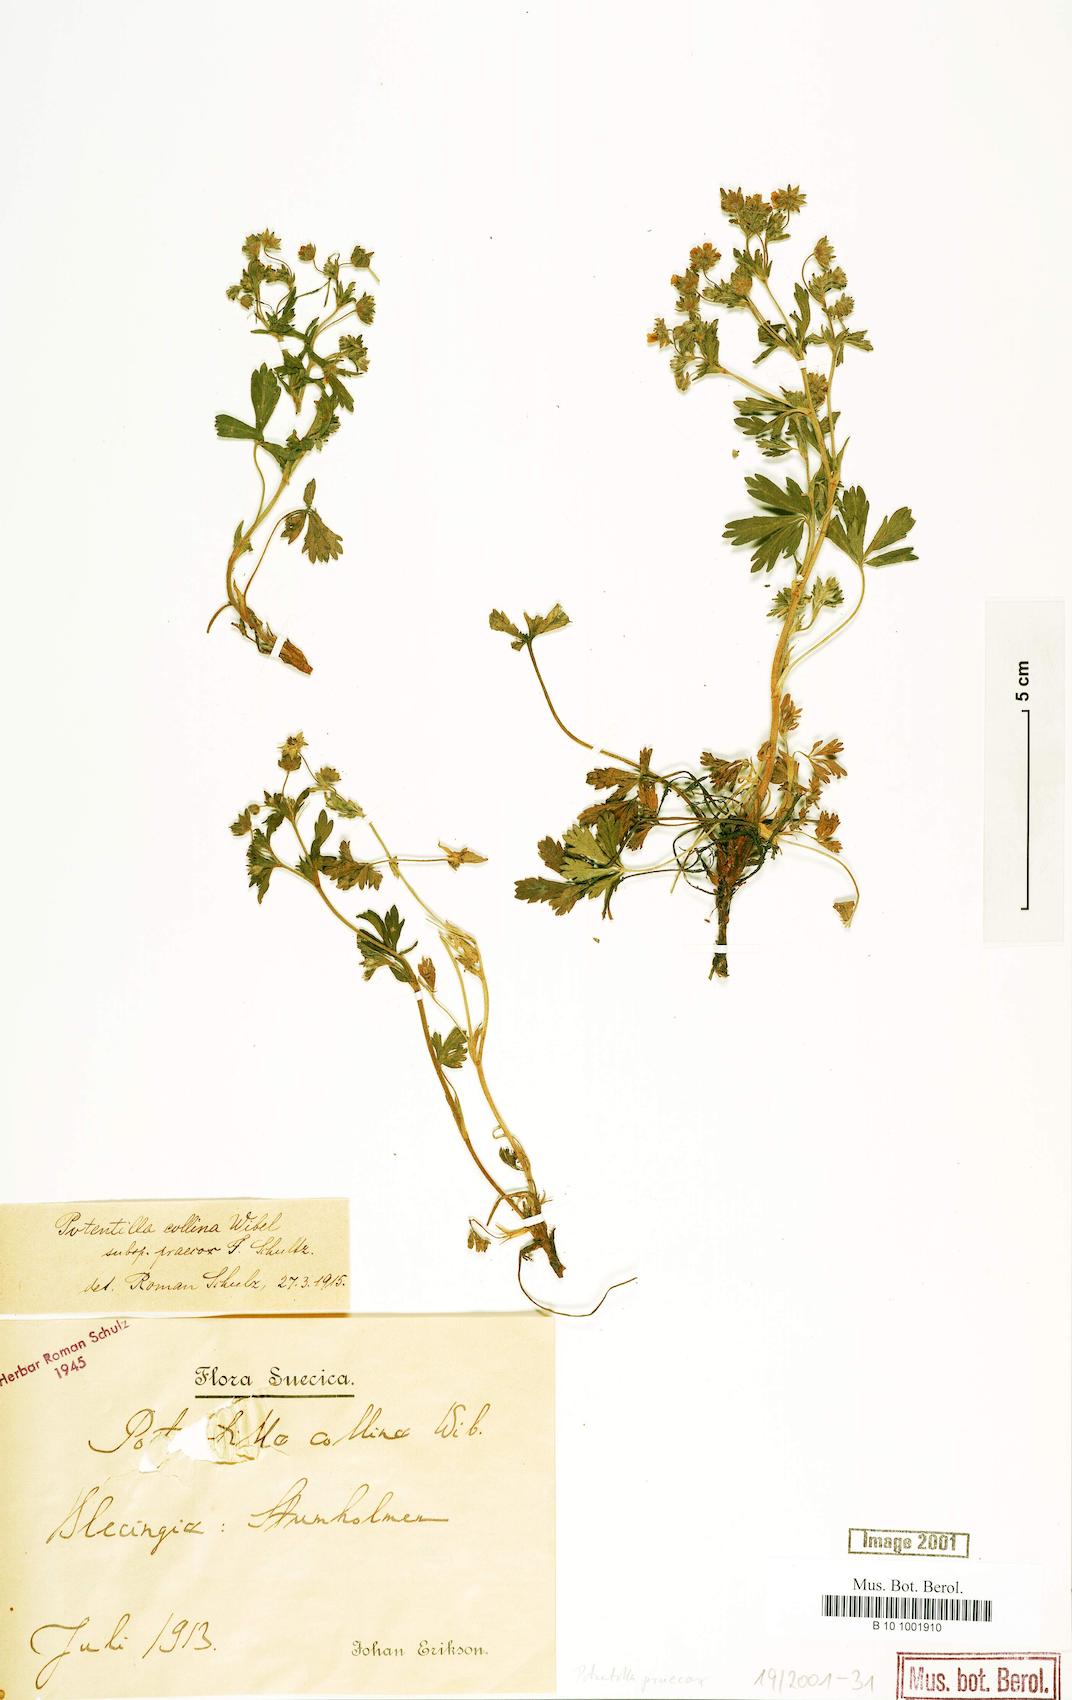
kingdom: Plantae
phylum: Tracheophyta
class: Magnoliopsida
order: Rosales
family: Rosaceae
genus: Potentilla
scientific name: Potentilla praecox
